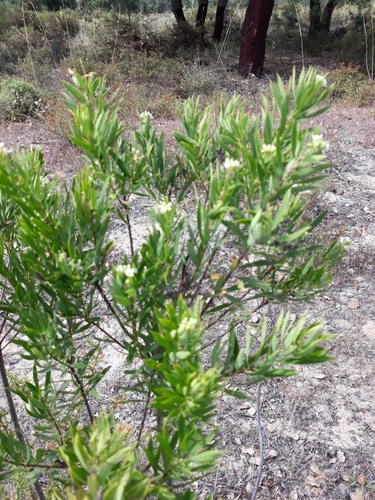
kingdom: Plantae
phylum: Tracheophyta
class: Magnoliopsida
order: Malvales
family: Thymelaeaceae
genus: Daphne
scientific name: Daphne gnidium
